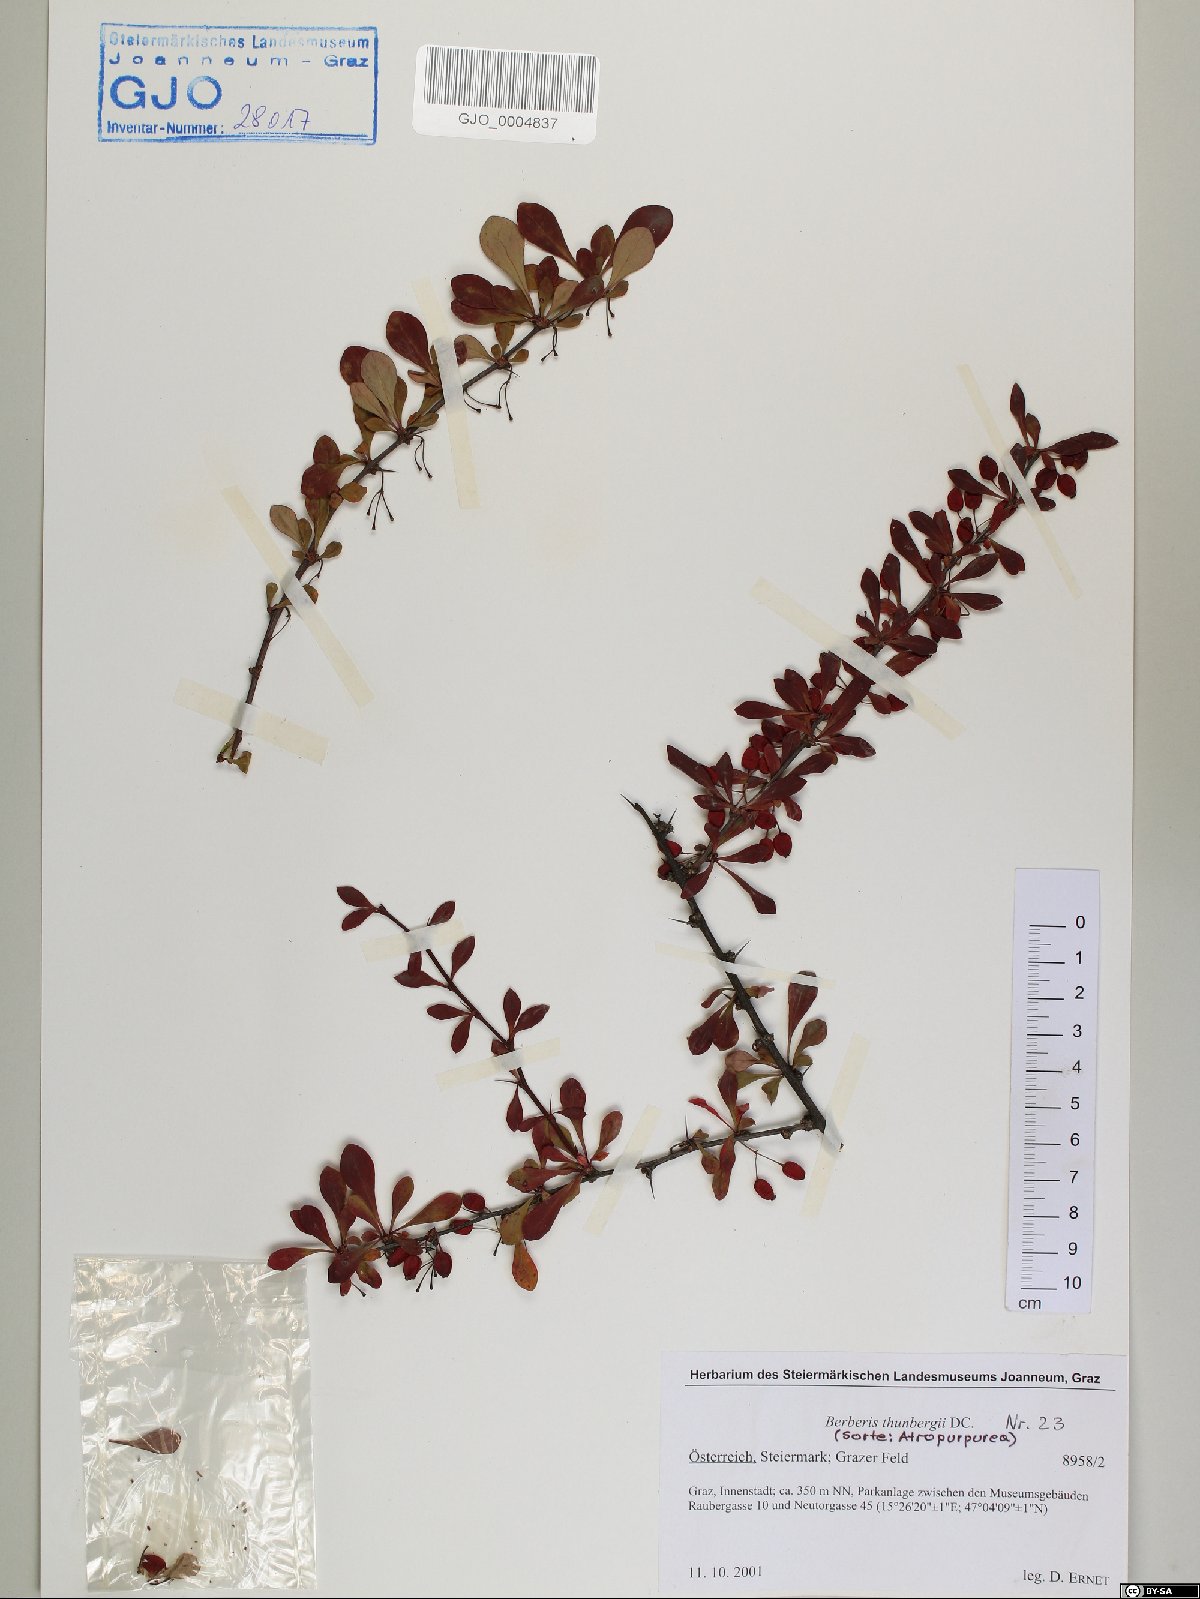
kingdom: Plantae
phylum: Tracheophyta
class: Magnoliopsida
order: Ranunculales
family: Berberidaceae
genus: Berberis
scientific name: Berberis thunbergii
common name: Japanese barberry
